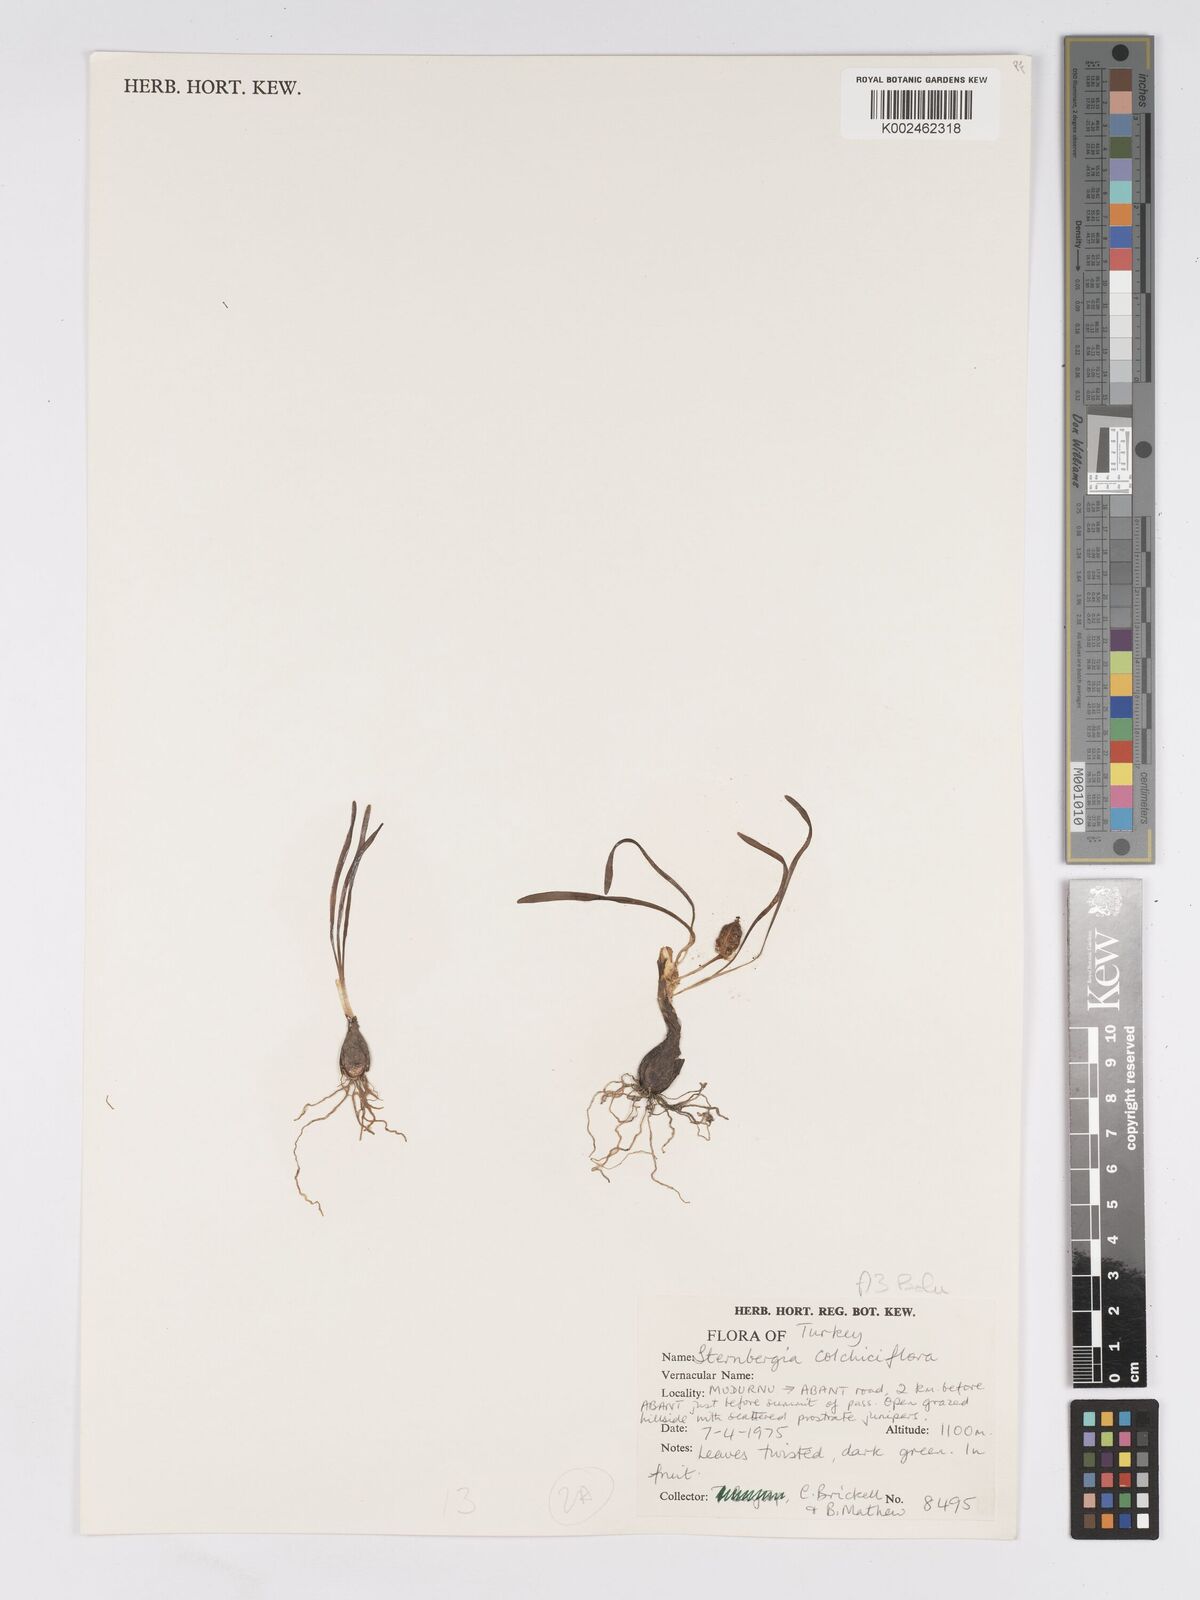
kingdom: Plantae
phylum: Tracheophyta
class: Liliopsida
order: Asparagales
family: Amaryllidaceae
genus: Sternbergia
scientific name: Sternbergia colchiciflora
